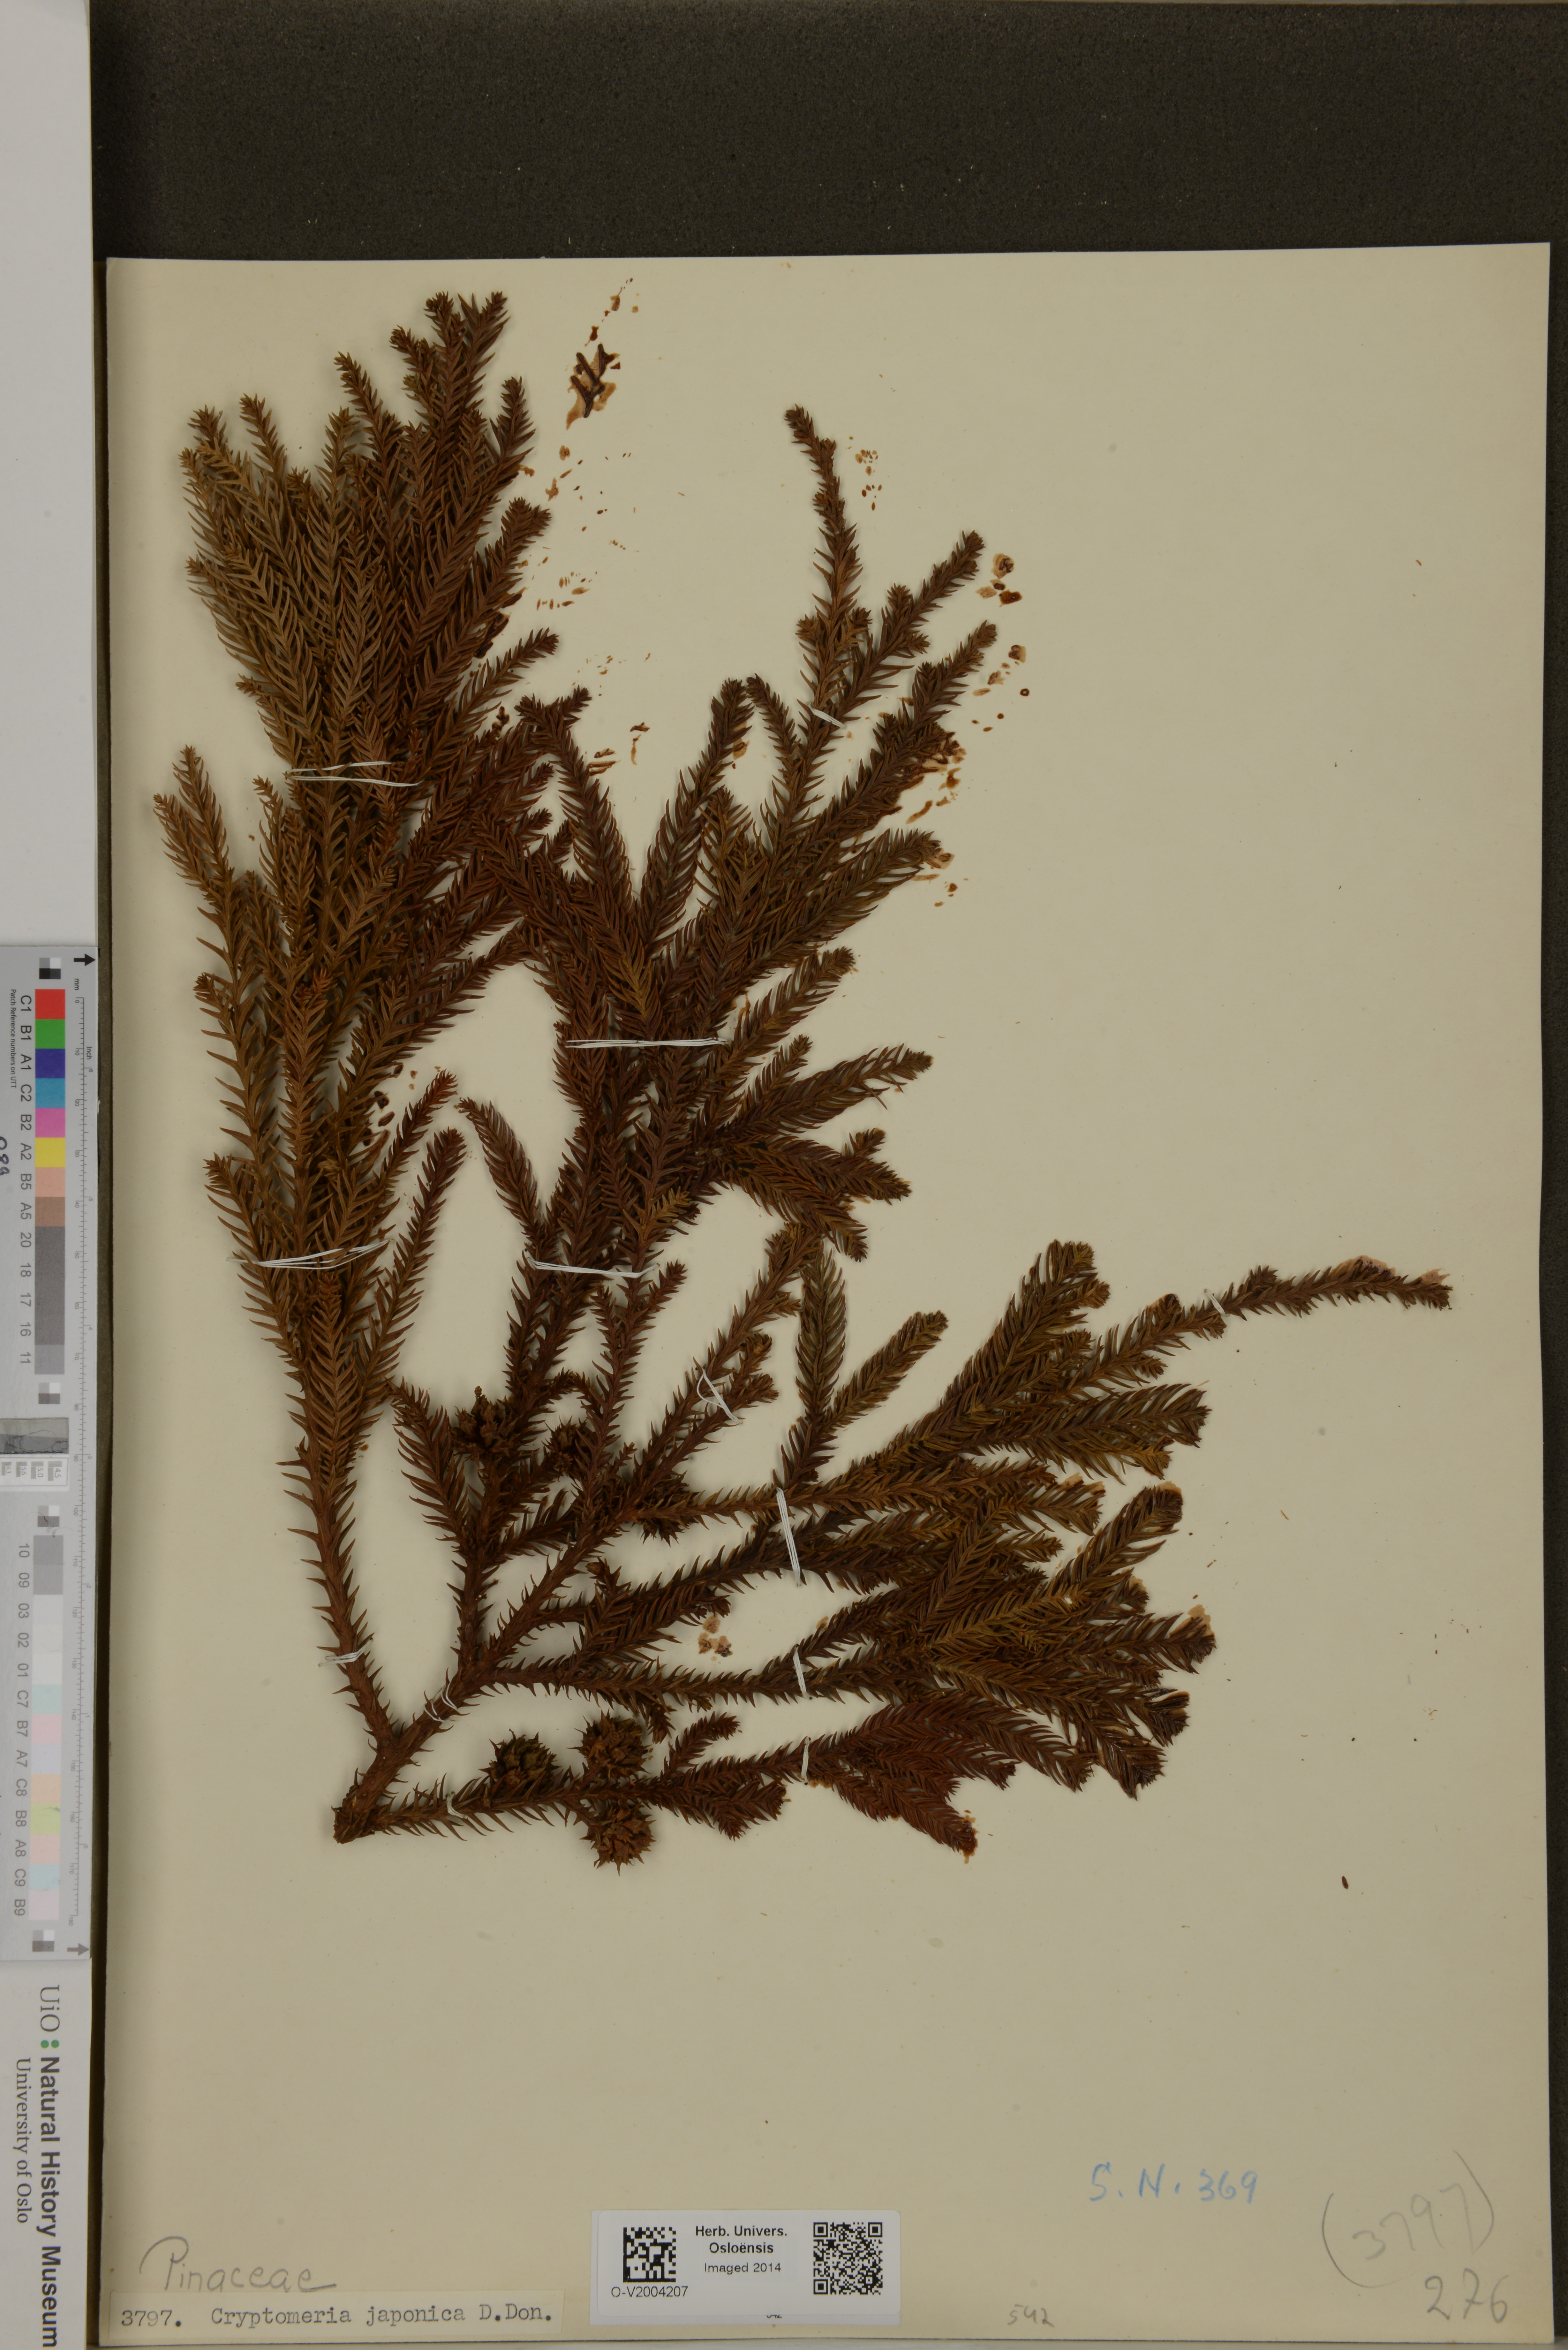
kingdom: Plantae
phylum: Tracheophyta
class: Pinopsida
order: Pinales
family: Cupressaceae
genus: Cryptomeria
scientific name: Cryptomeria japonica
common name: Japanese cedar
